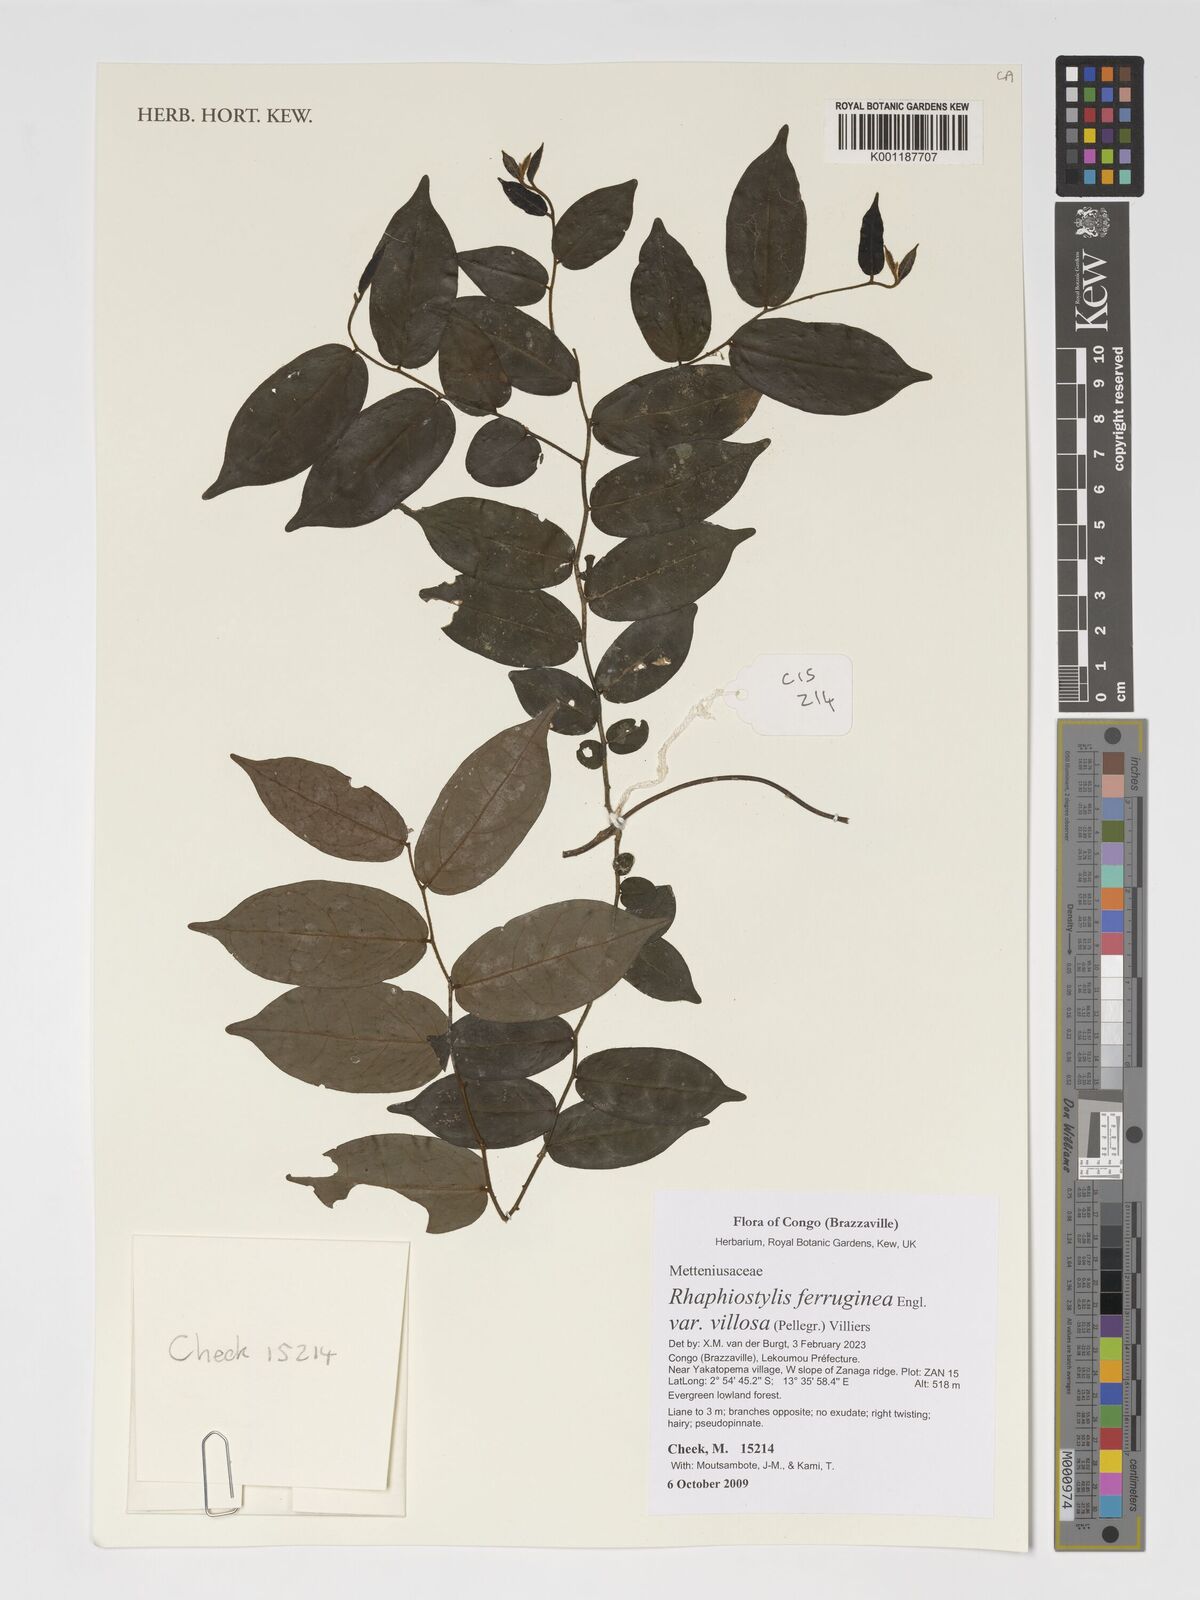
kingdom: Plantae
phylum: Tracheophyta
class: Magnoliopsida
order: Metteniusales
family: Metteniusaceae
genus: Rhaphiostylis
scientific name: Rhaphiostylis ferruginea
